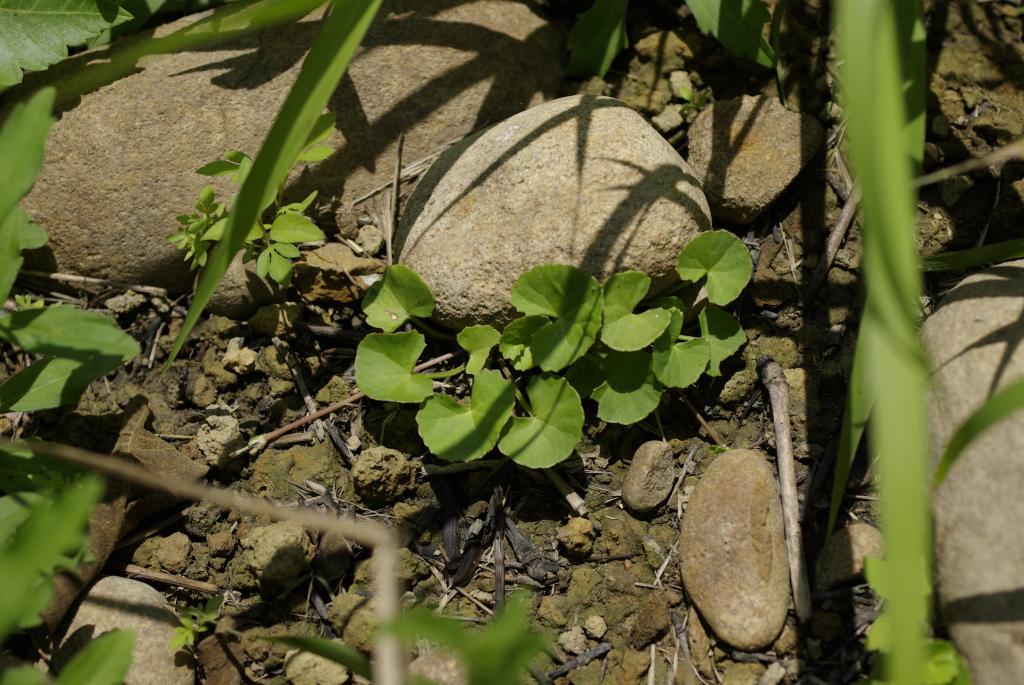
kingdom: Plantae
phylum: Tracheophyta
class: Magnoliopsida
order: Apiales
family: Apiaceae
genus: Centella
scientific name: Centella asiatica
